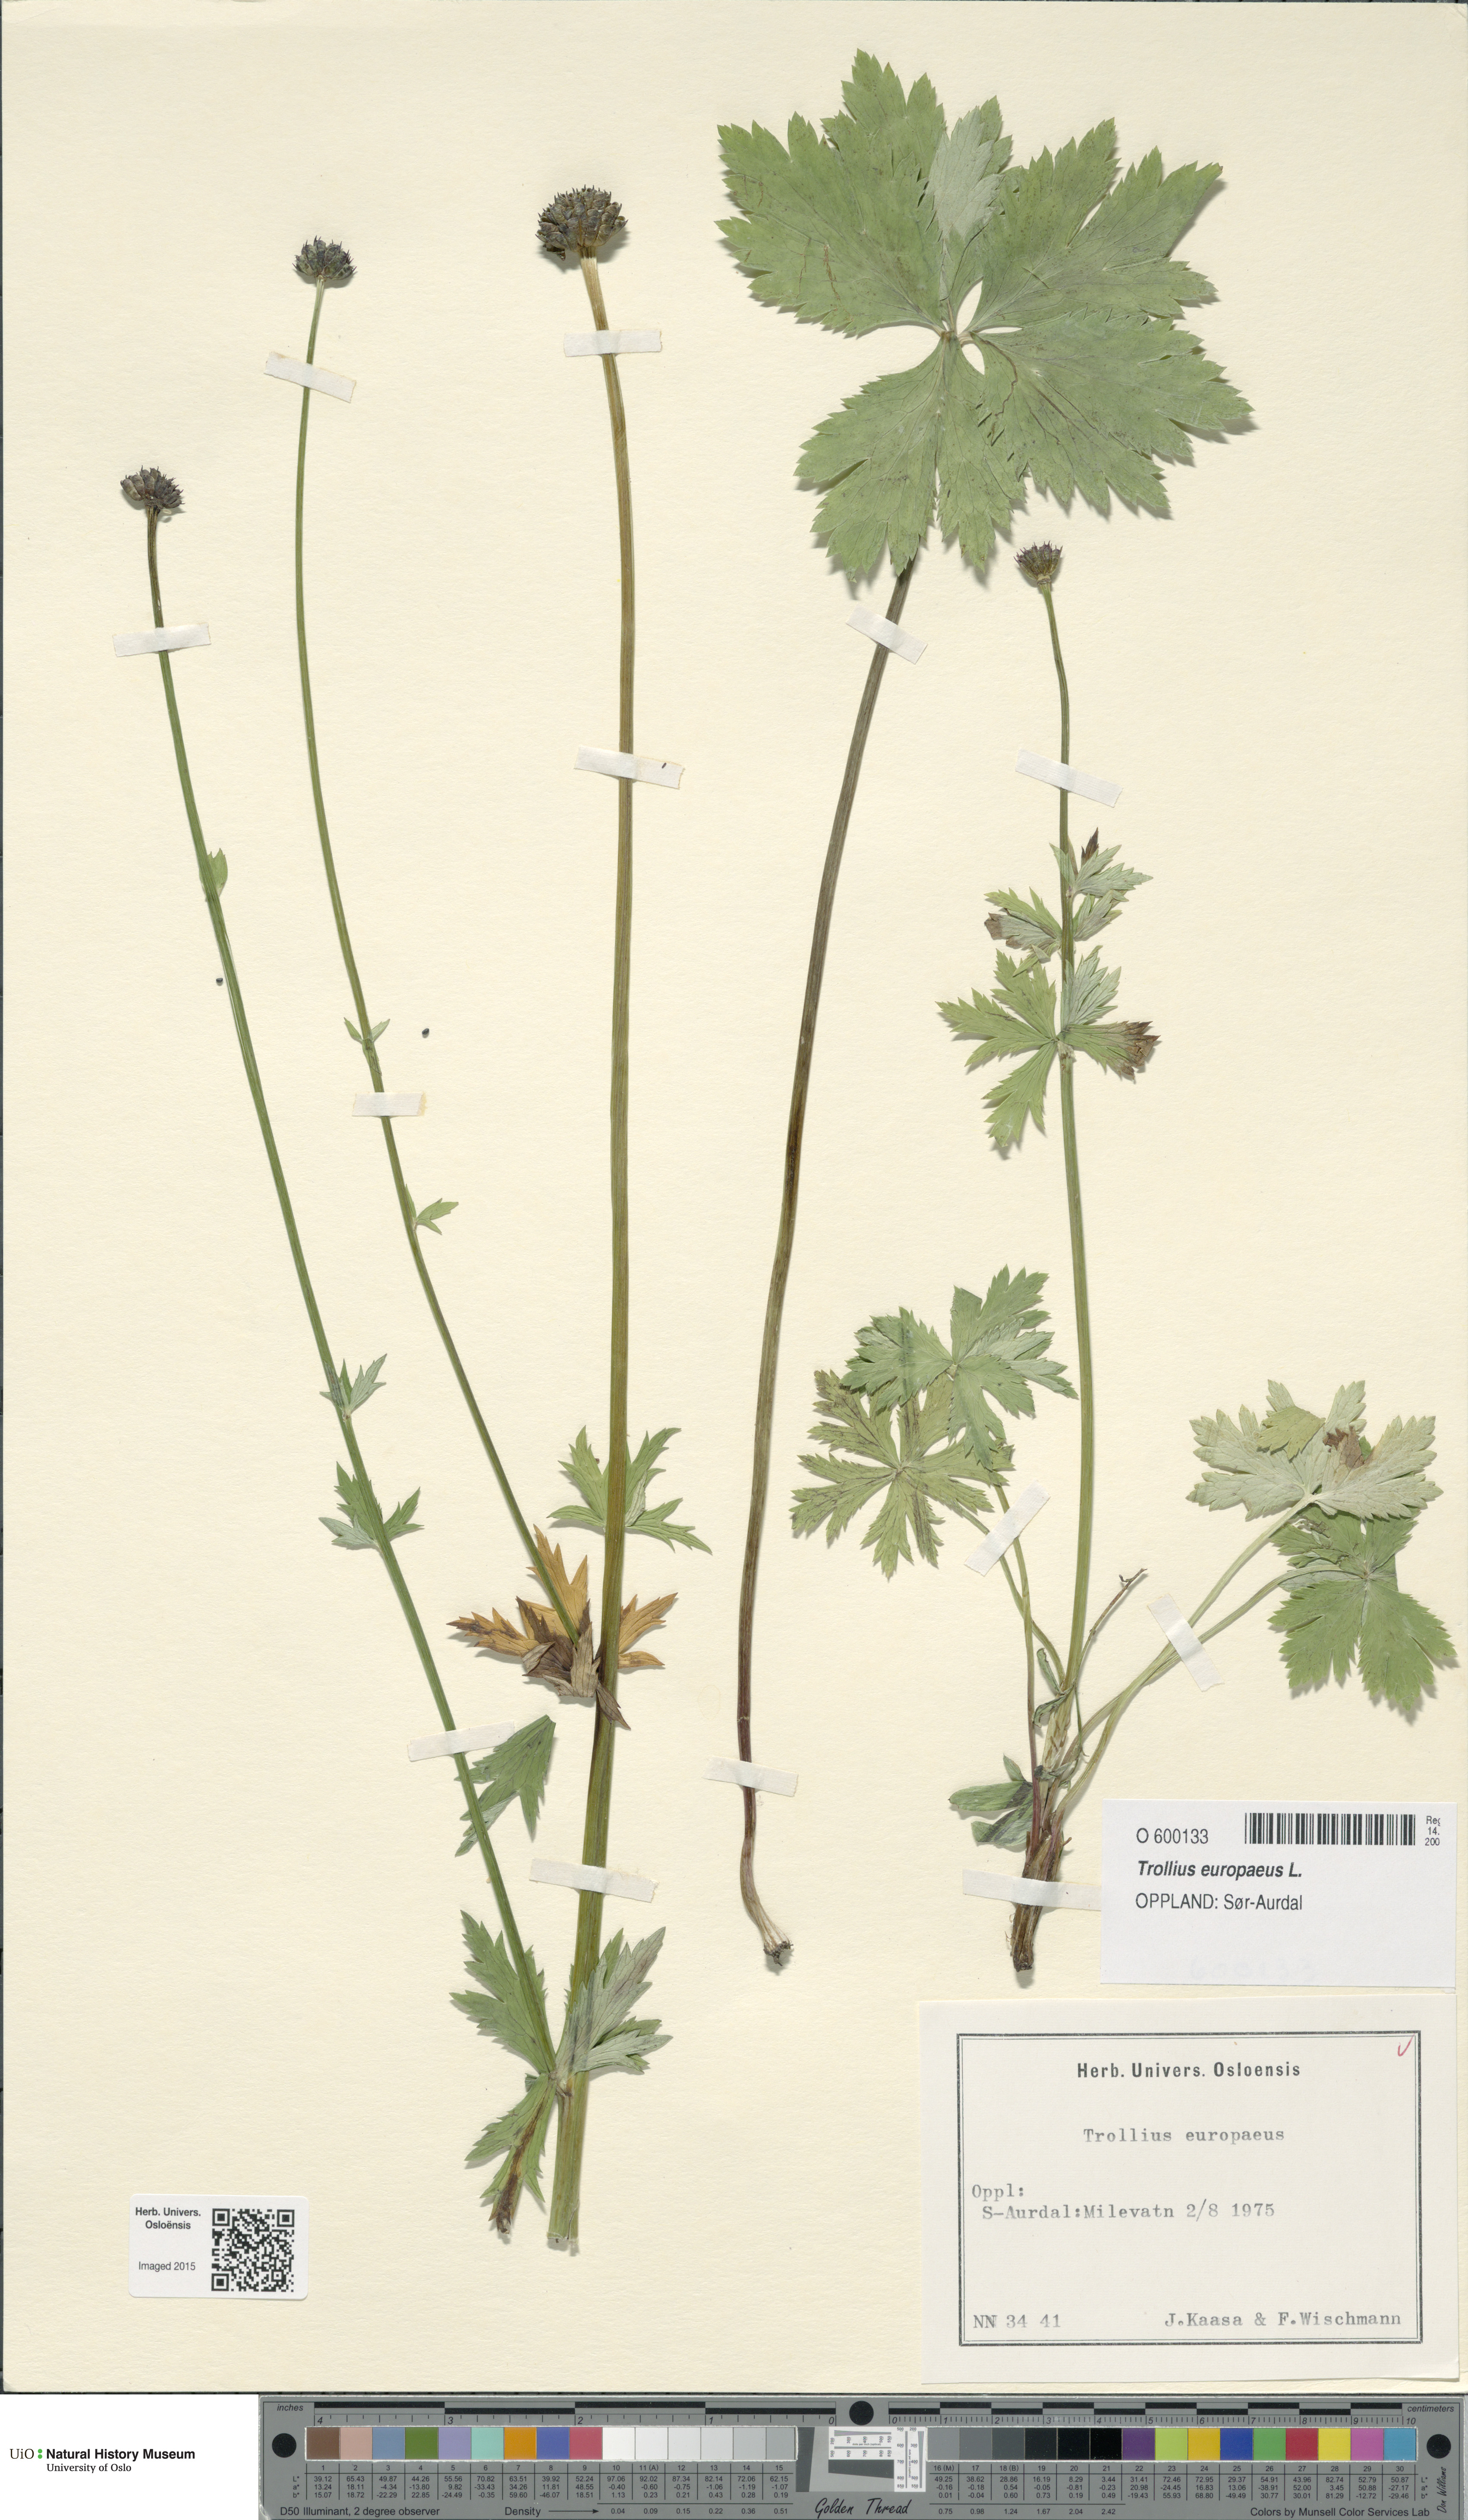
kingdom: Plantae
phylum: Tracheophyta
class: Magnoliopsida
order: Ranunculales
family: Ranunculaceae
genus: Trollius
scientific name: Trollius europaeus
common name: European globeflower
